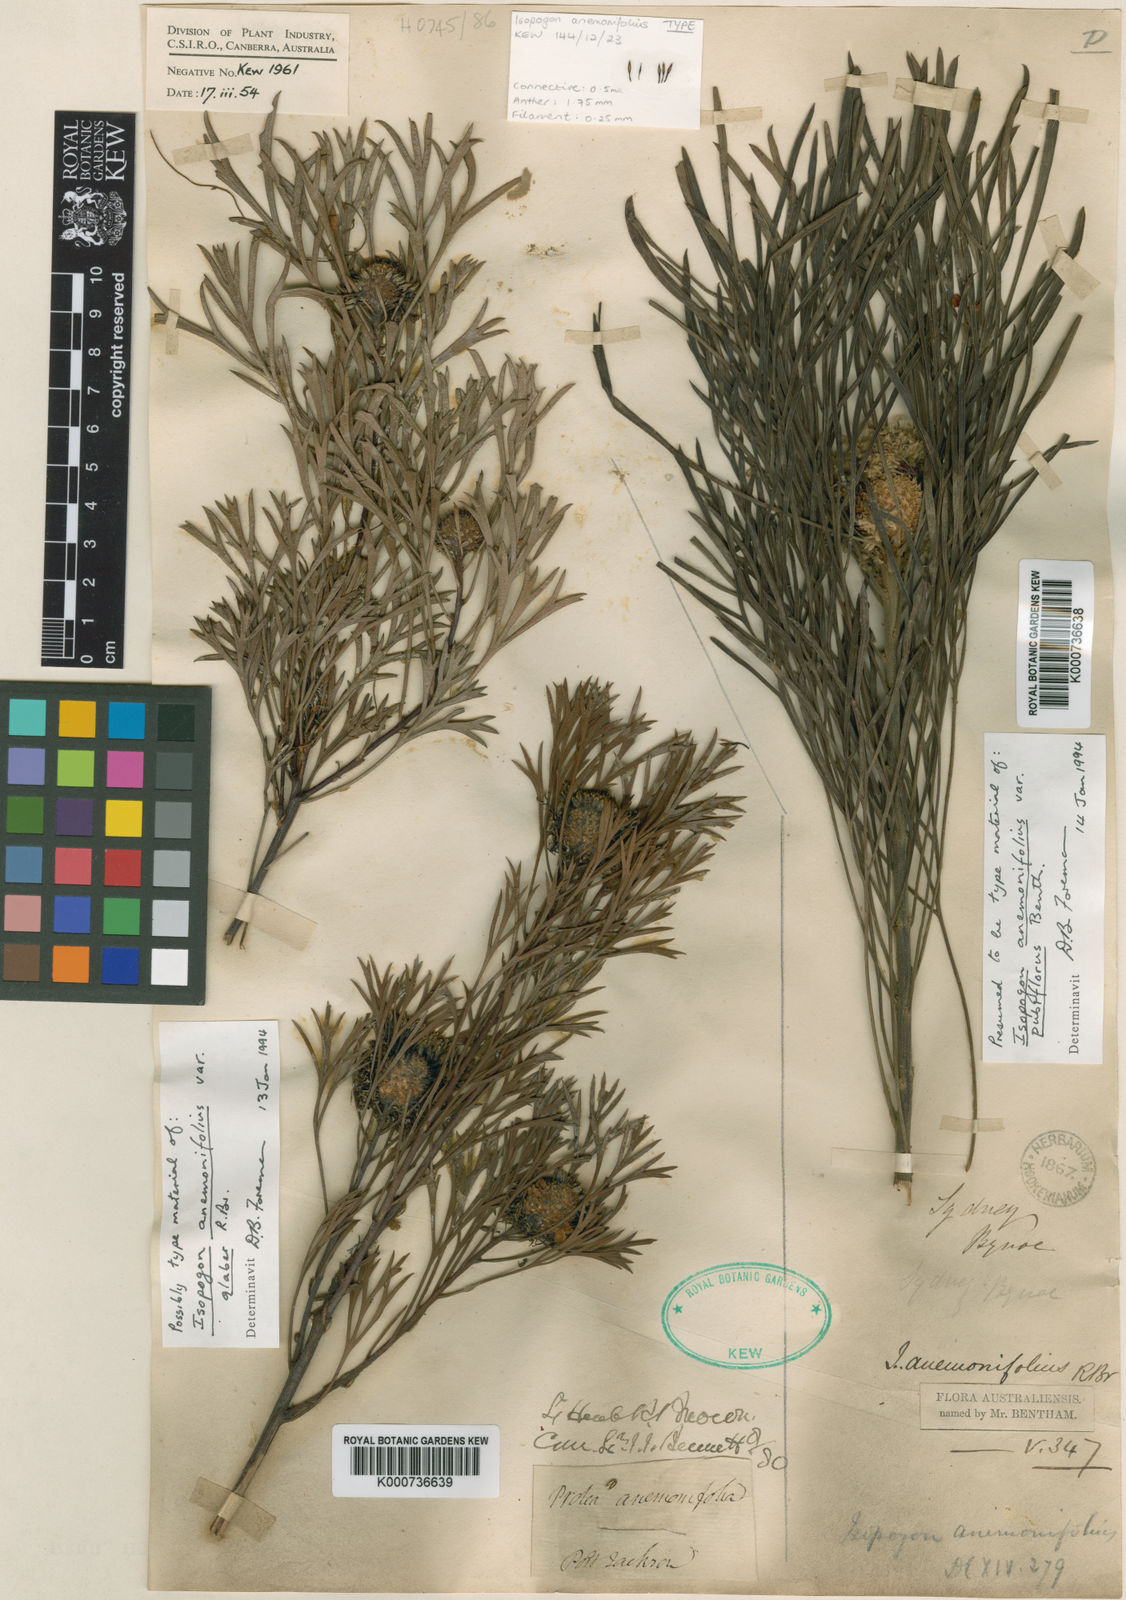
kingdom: Plantae
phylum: Tracheophyta
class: Magnoliopsida
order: Proteales
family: Proteaceae
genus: Isopogon
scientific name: Isopogon anemonifolius
